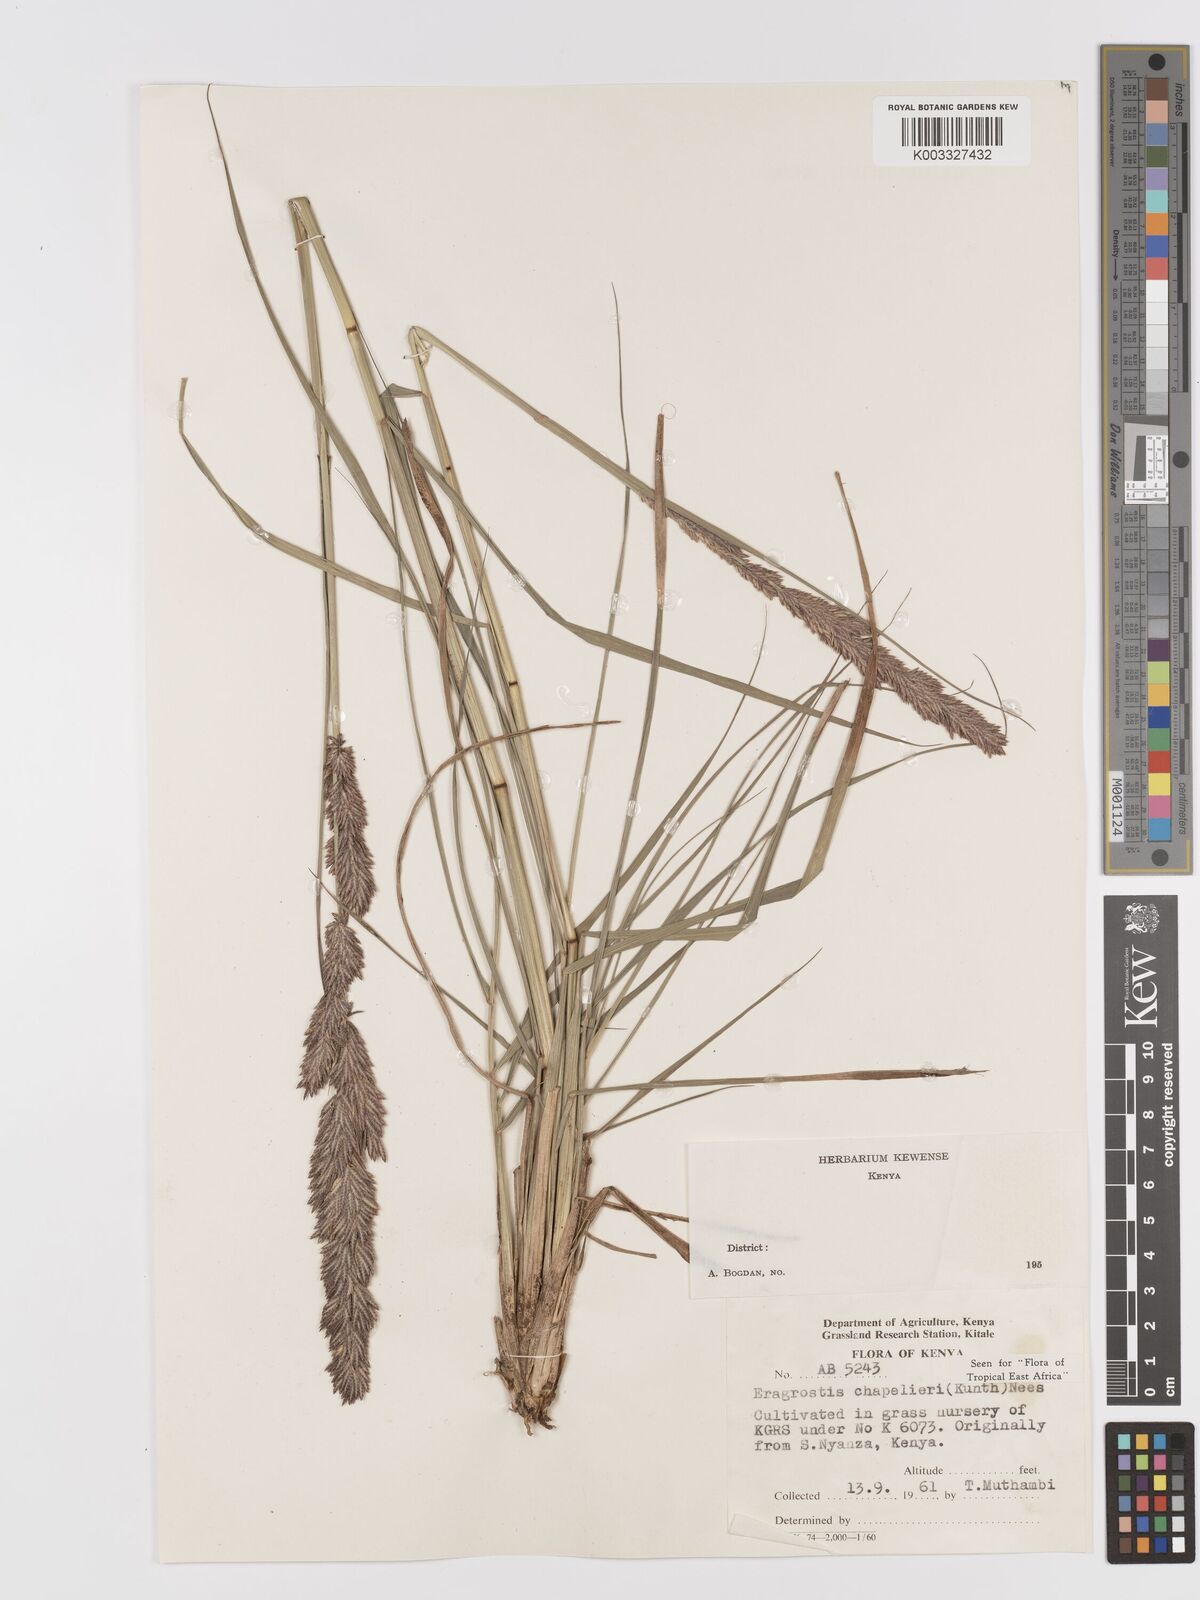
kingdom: Plantae
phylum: Tracheophyta
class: Liliopsida
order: Poales
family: Poaceae
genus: Eragrostis
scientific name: Eragrostis chapelieri
